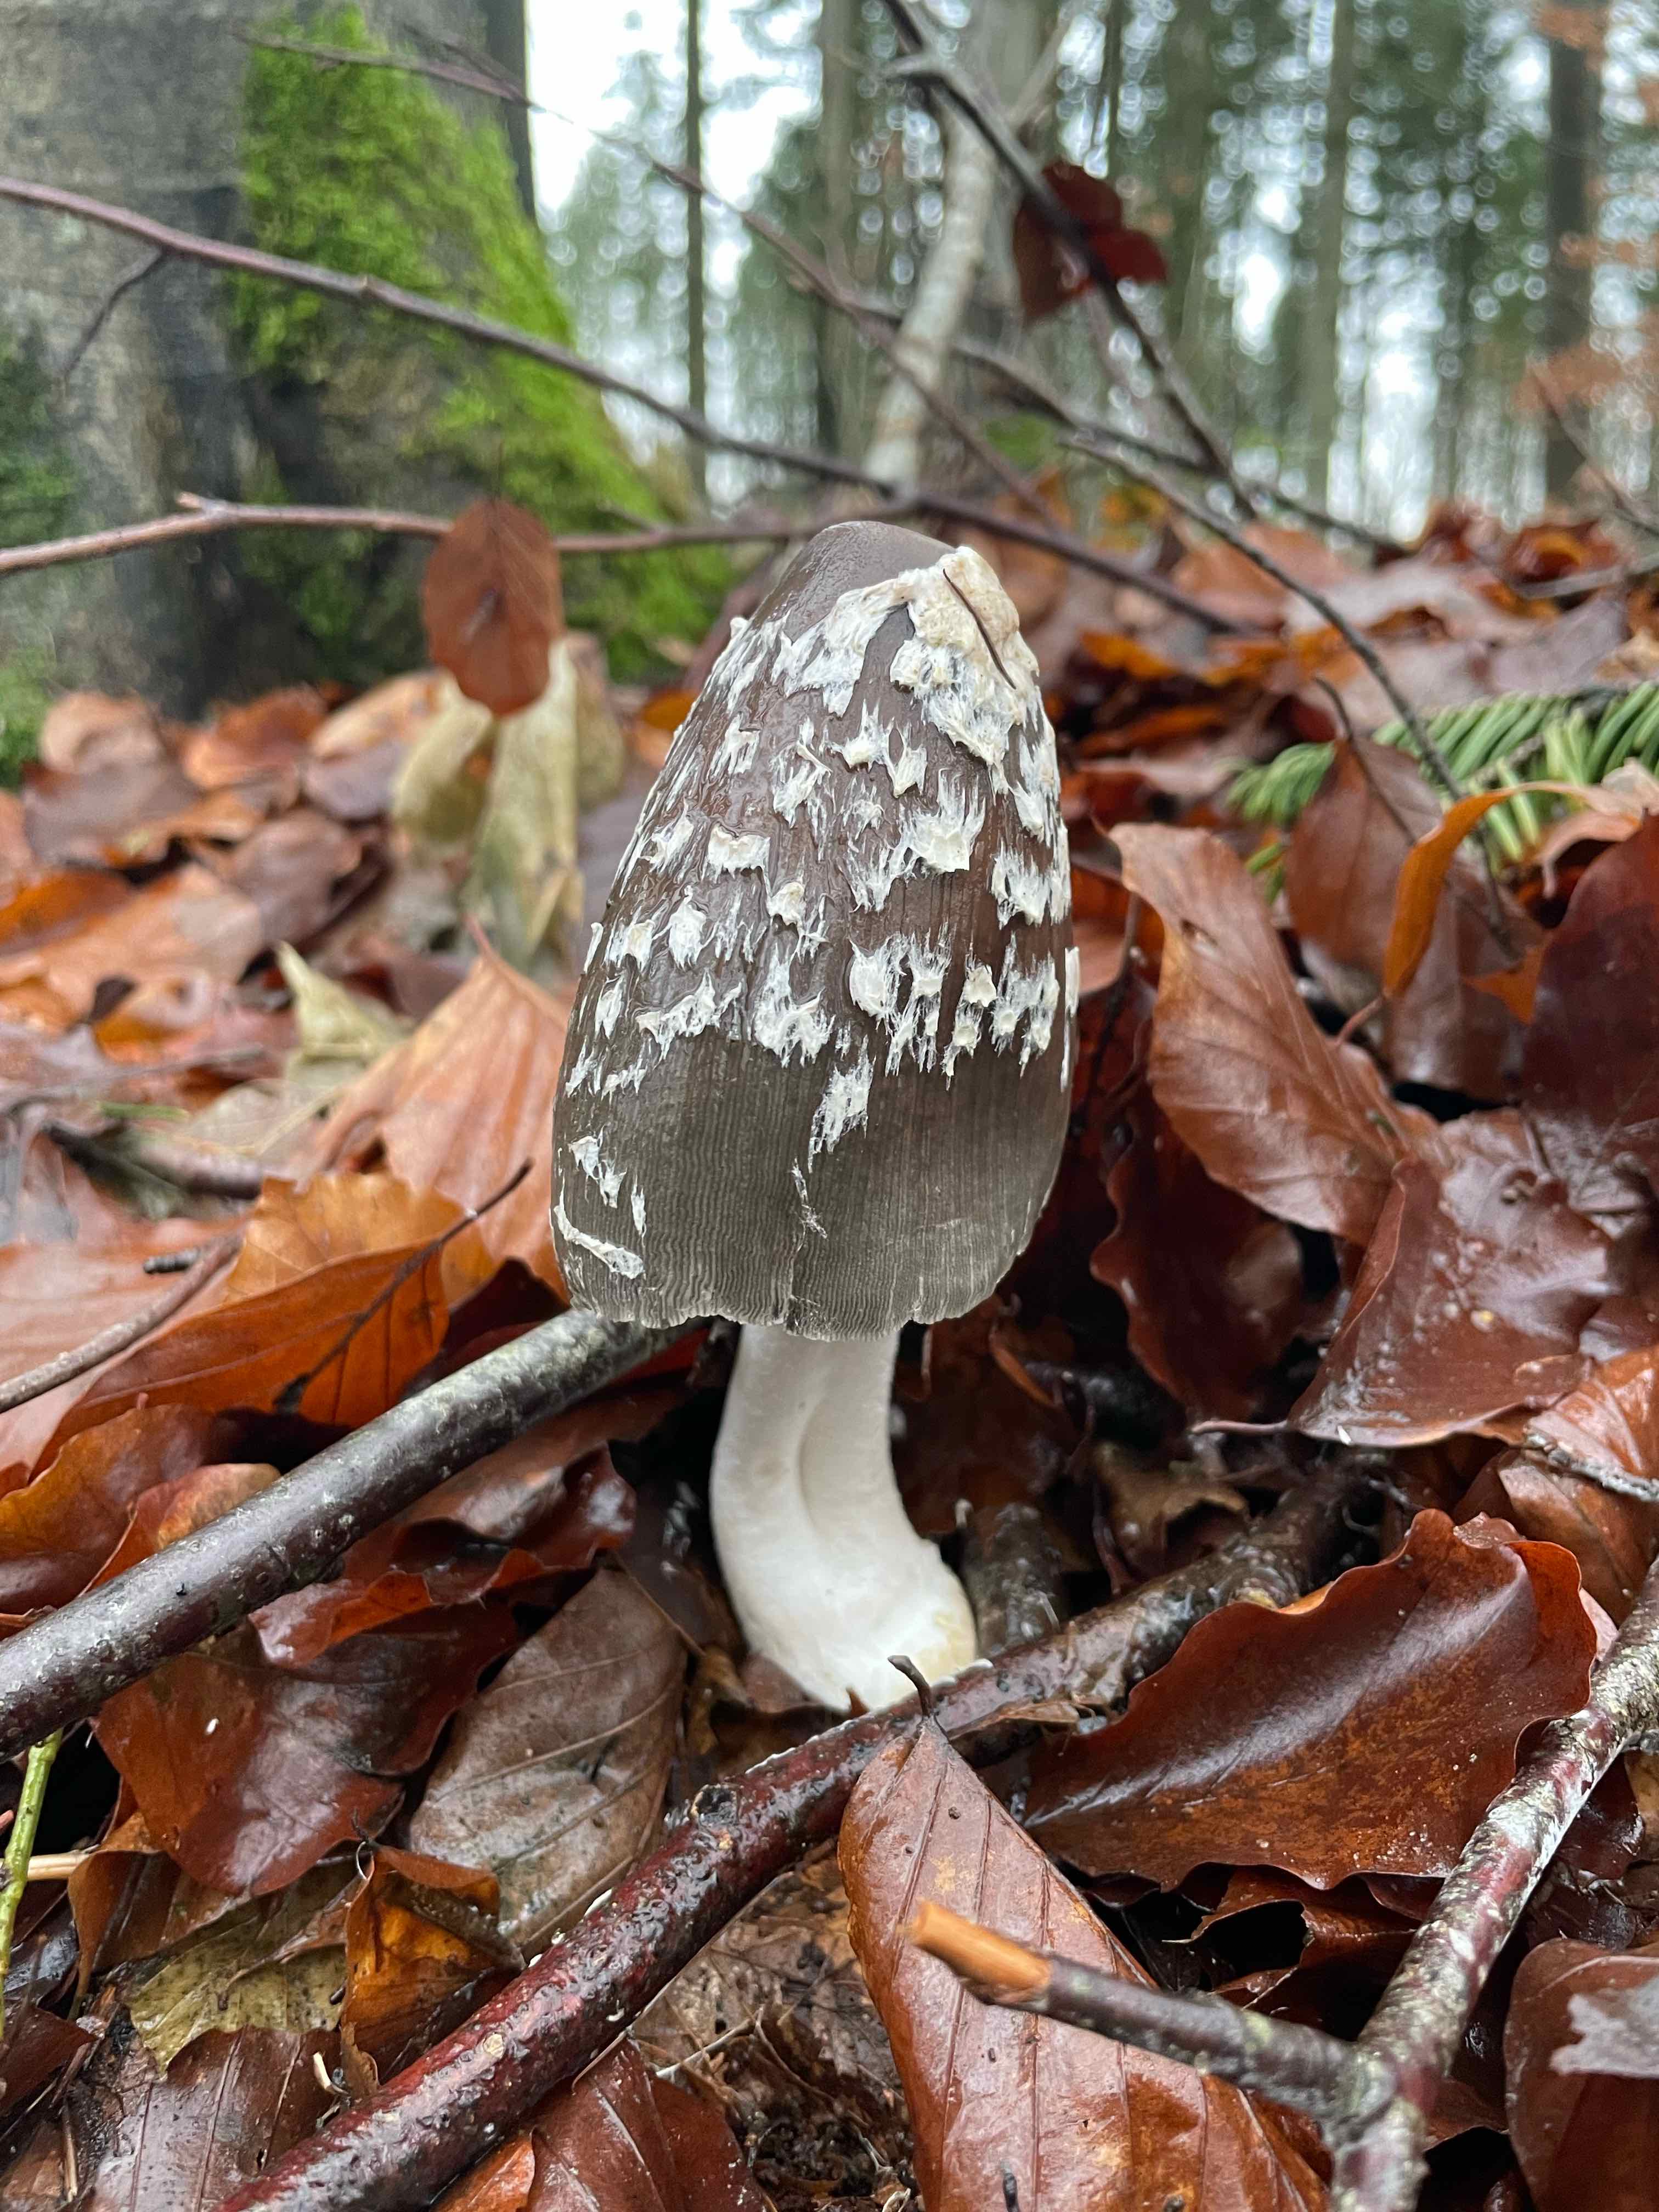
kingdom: Fungi
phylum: Basidiomycota
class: Agaricomycetes
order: Agaricales
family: Psathyrellaceae
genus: Coprinopsis
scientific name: Coprinopsis picacea
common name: skade-blækhat
